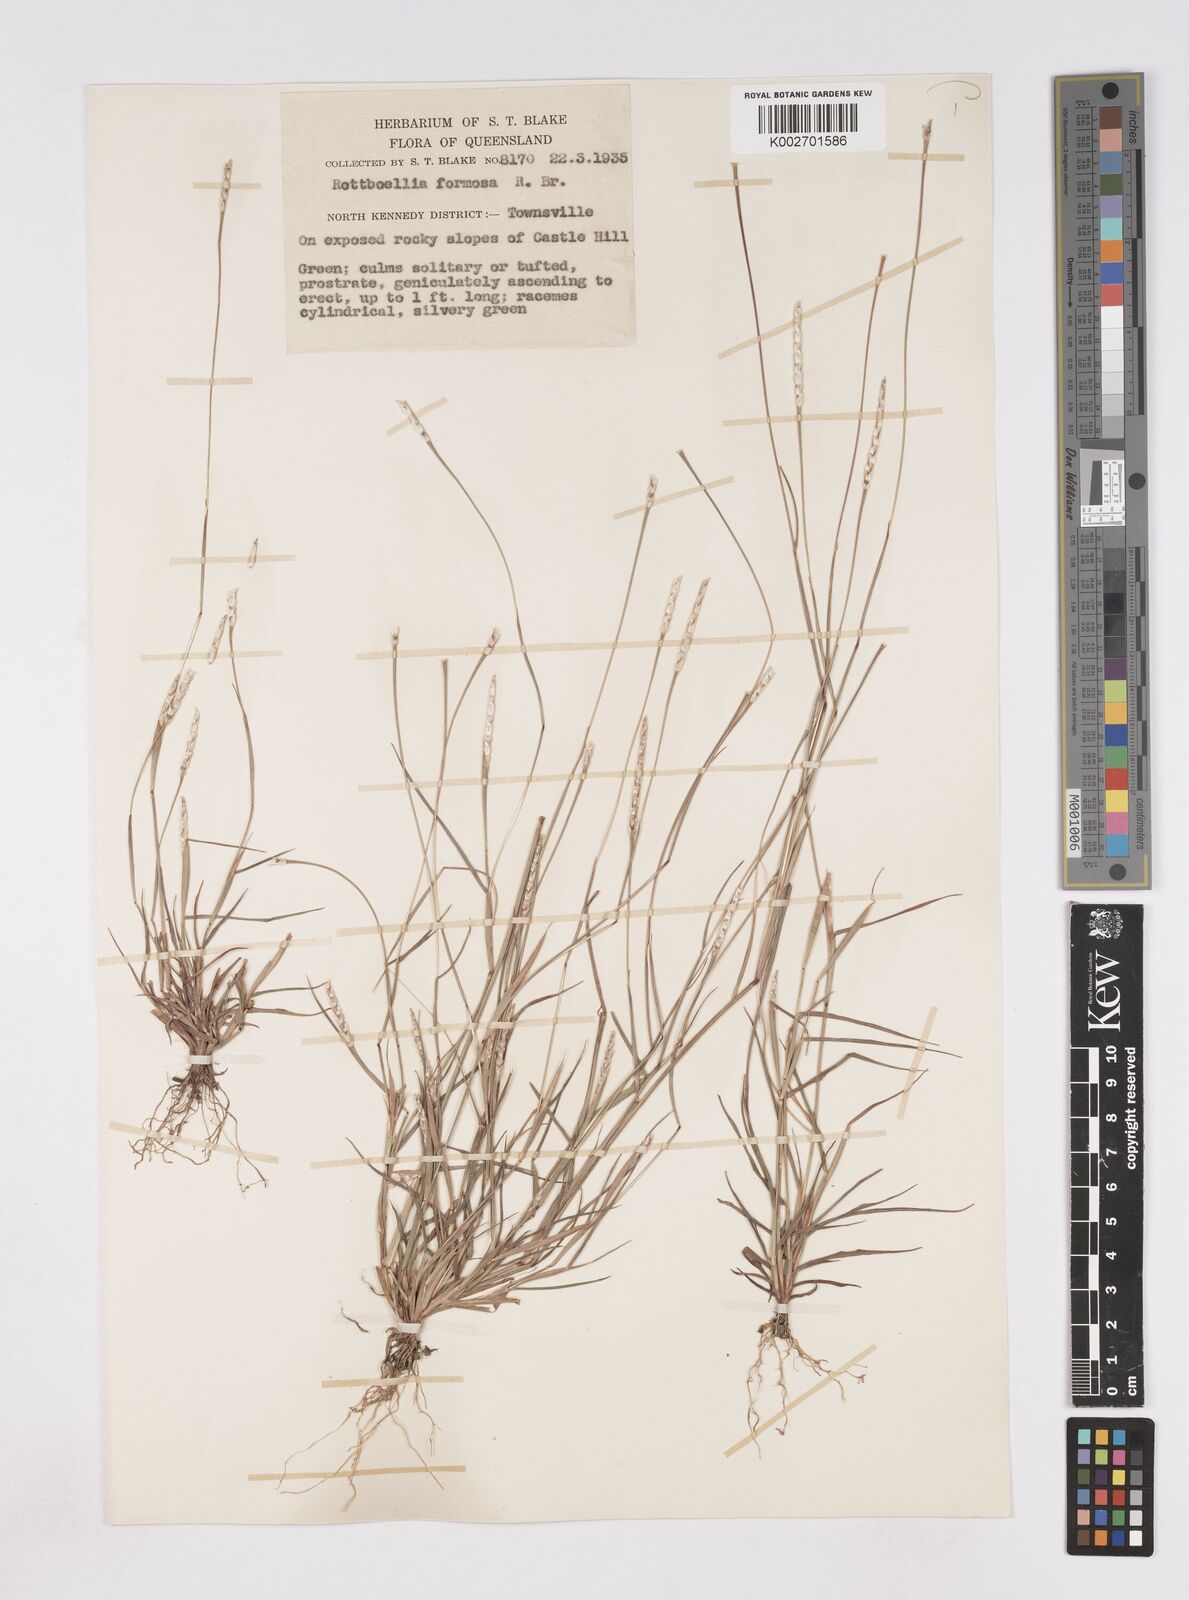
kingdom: Plantae
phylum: Tracheophyta
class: Liliopsida
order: Poales
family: Poaceae
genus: Heteropholis
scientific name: Heteropholis
